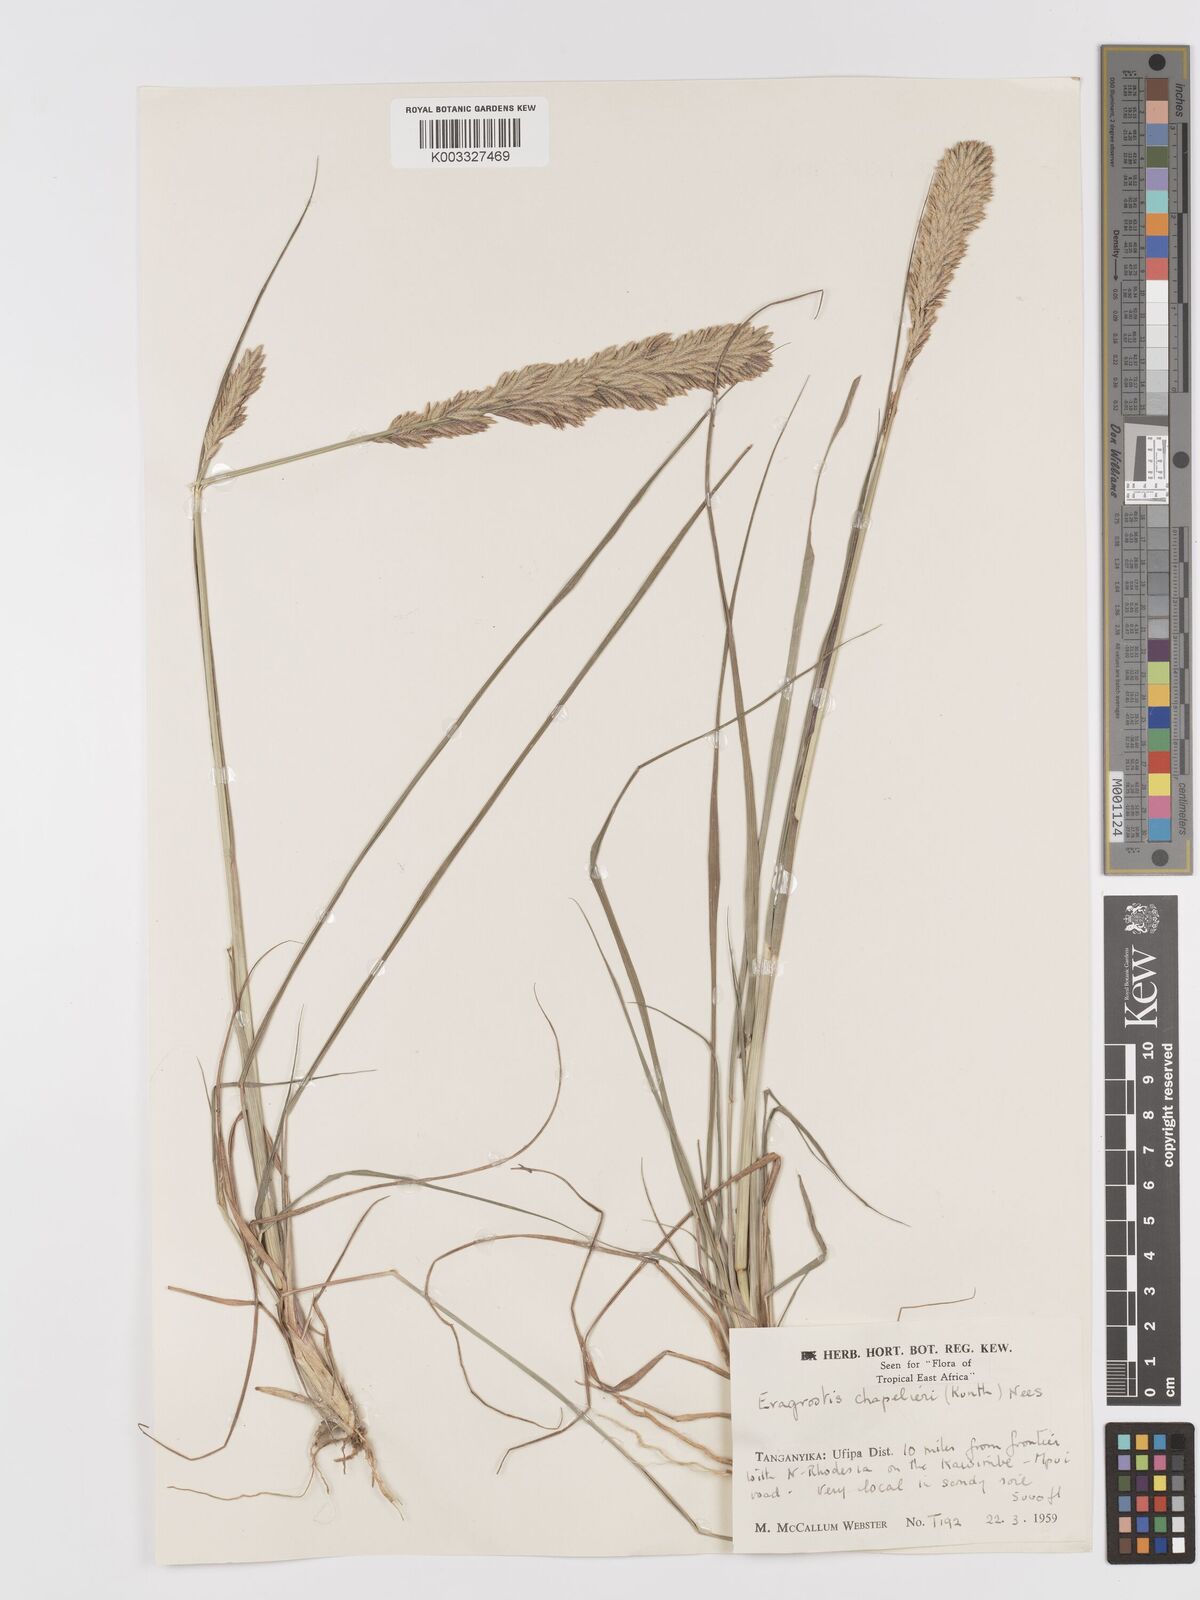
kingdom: Plantae
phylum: Tracheophyta
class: Liliopsida
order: Poales
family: Poaceae
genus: Eragrostis
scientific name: Eragrostis chapelieri
